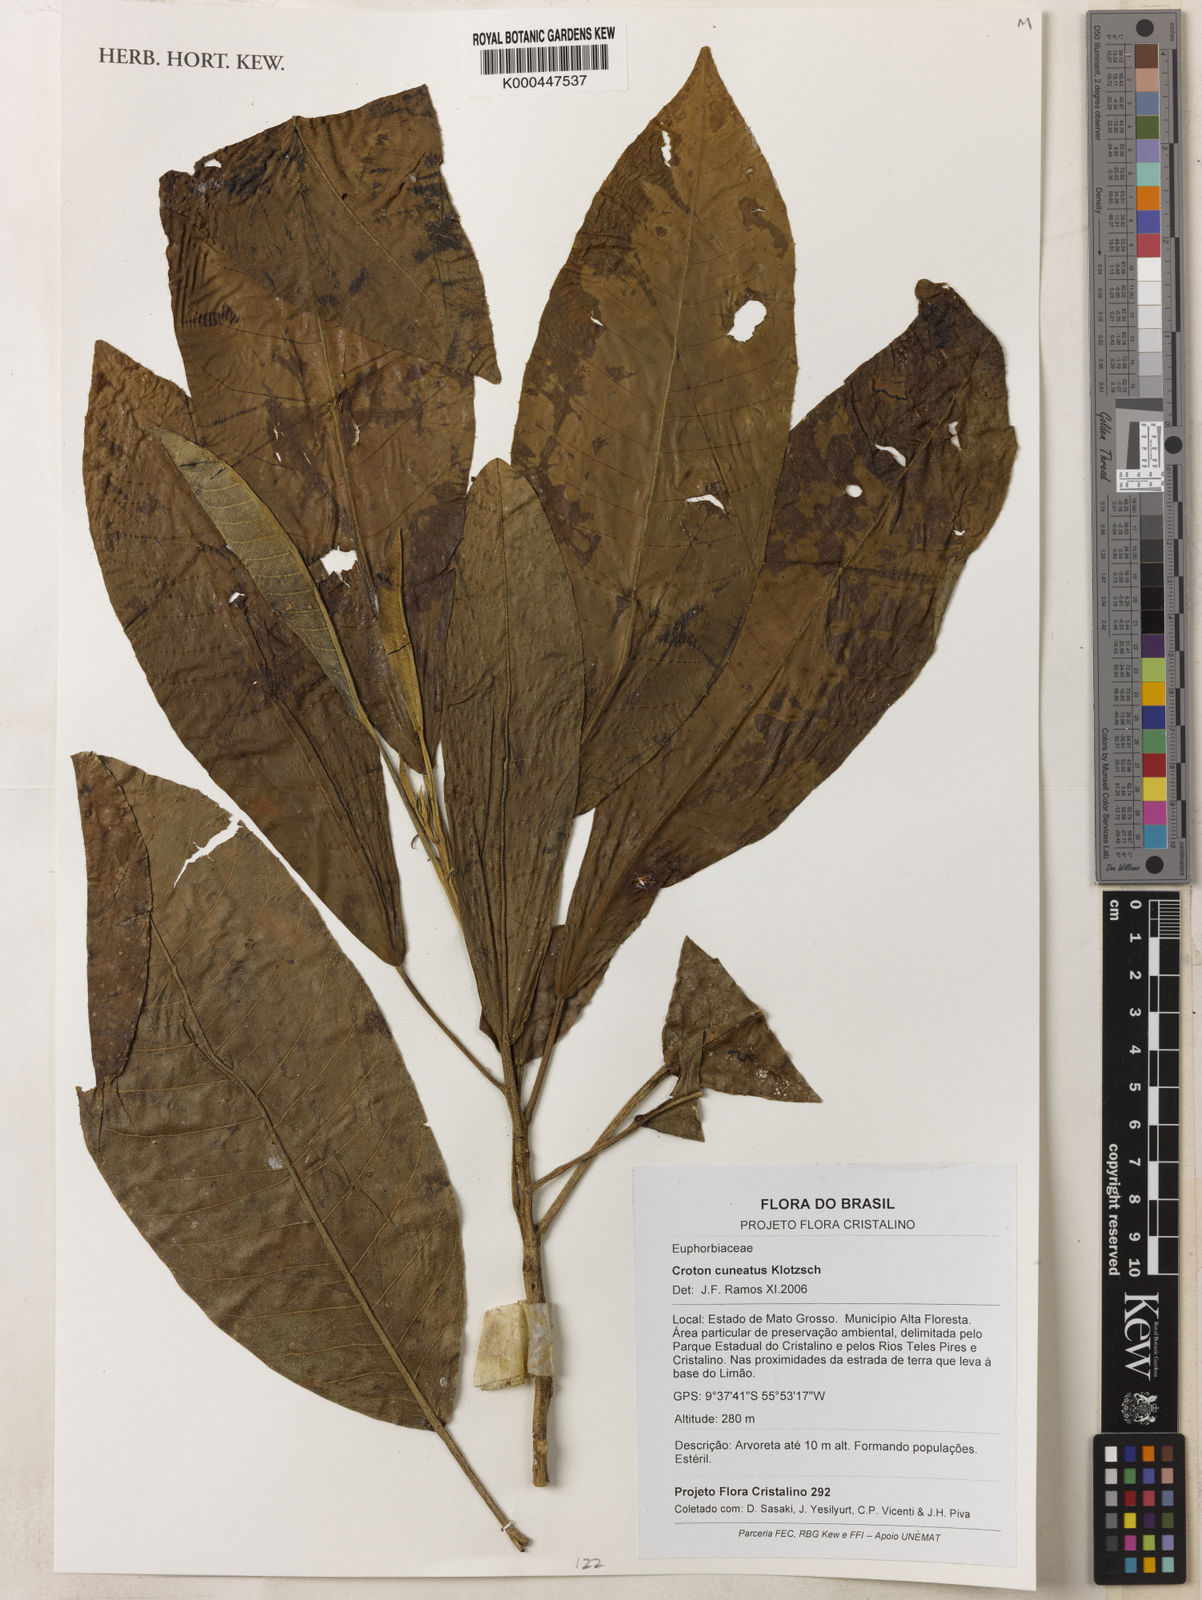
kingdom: Plantae
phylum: Tracheophyta
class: Magnoliopsida
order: Malpighiales
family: Euphorbiaceae
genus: Croton
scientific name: Croton cuneatus
